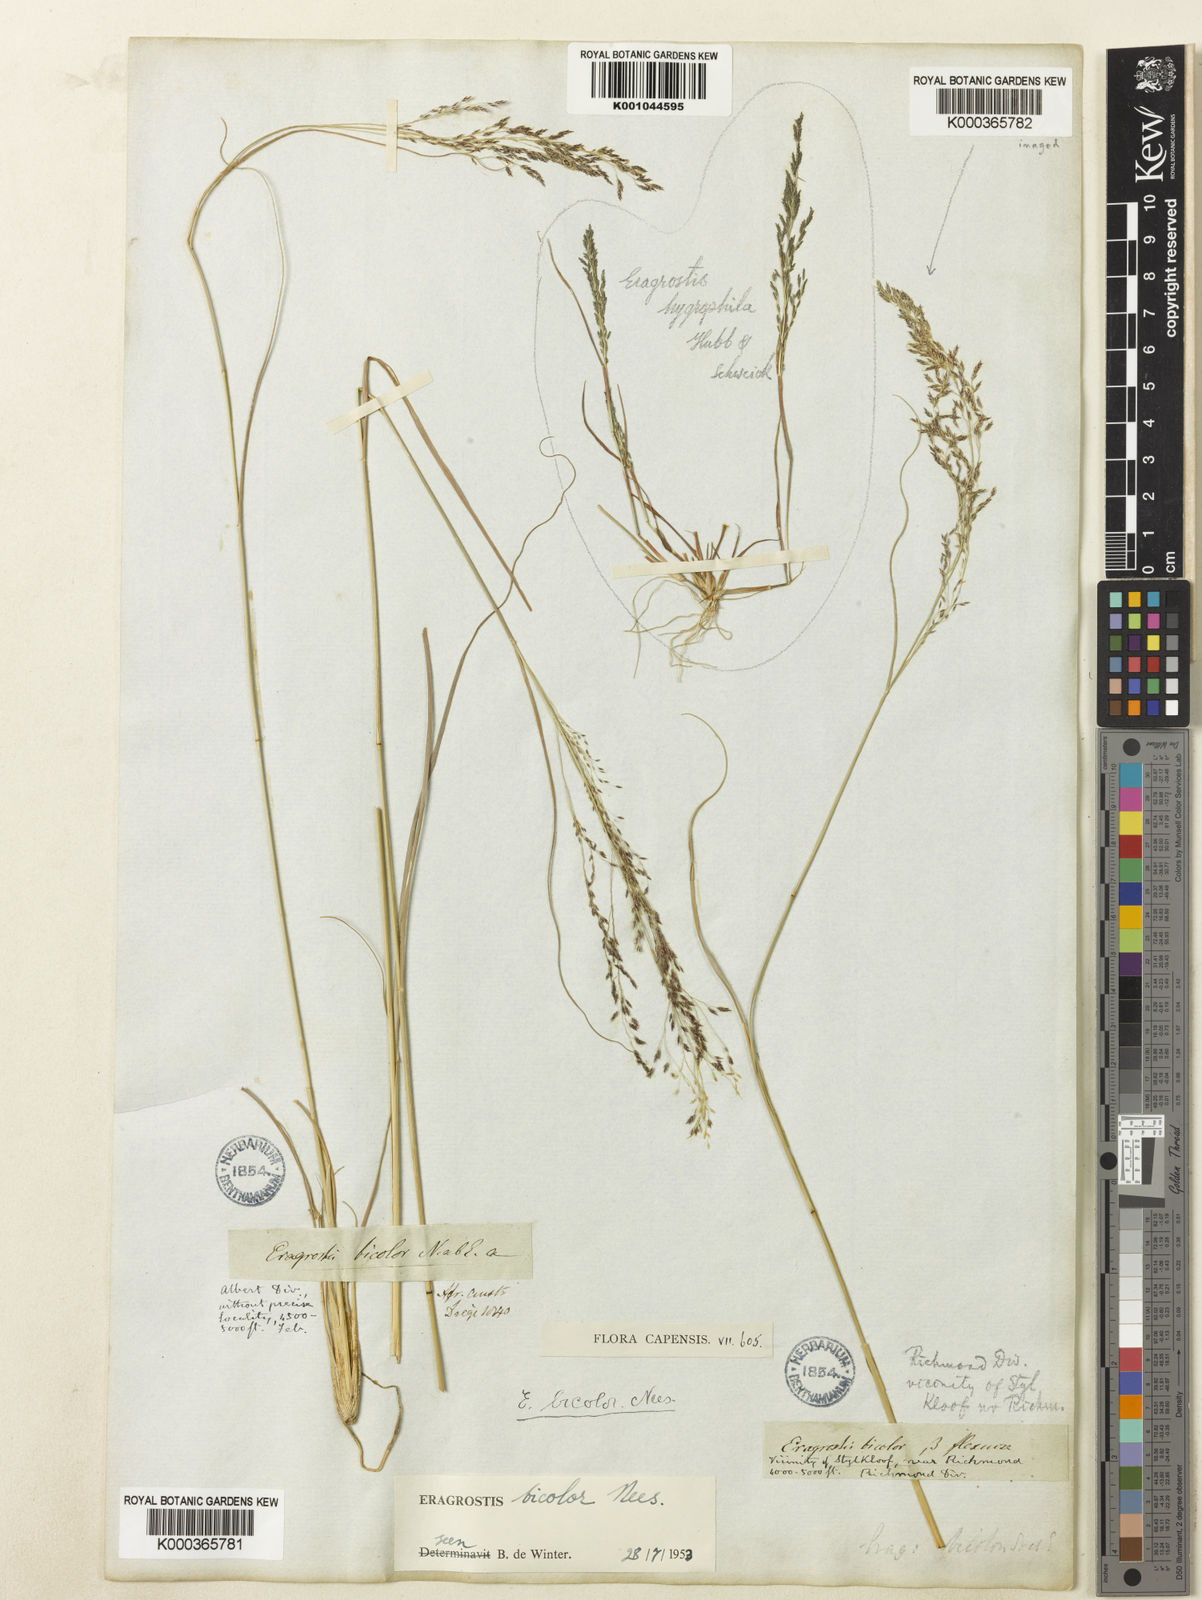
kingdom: Plantae
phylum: Tracheophyta
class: Liliopsida
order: Poales
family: Poaceae
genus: Eragrostis
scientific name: Eragrostis bicolor
